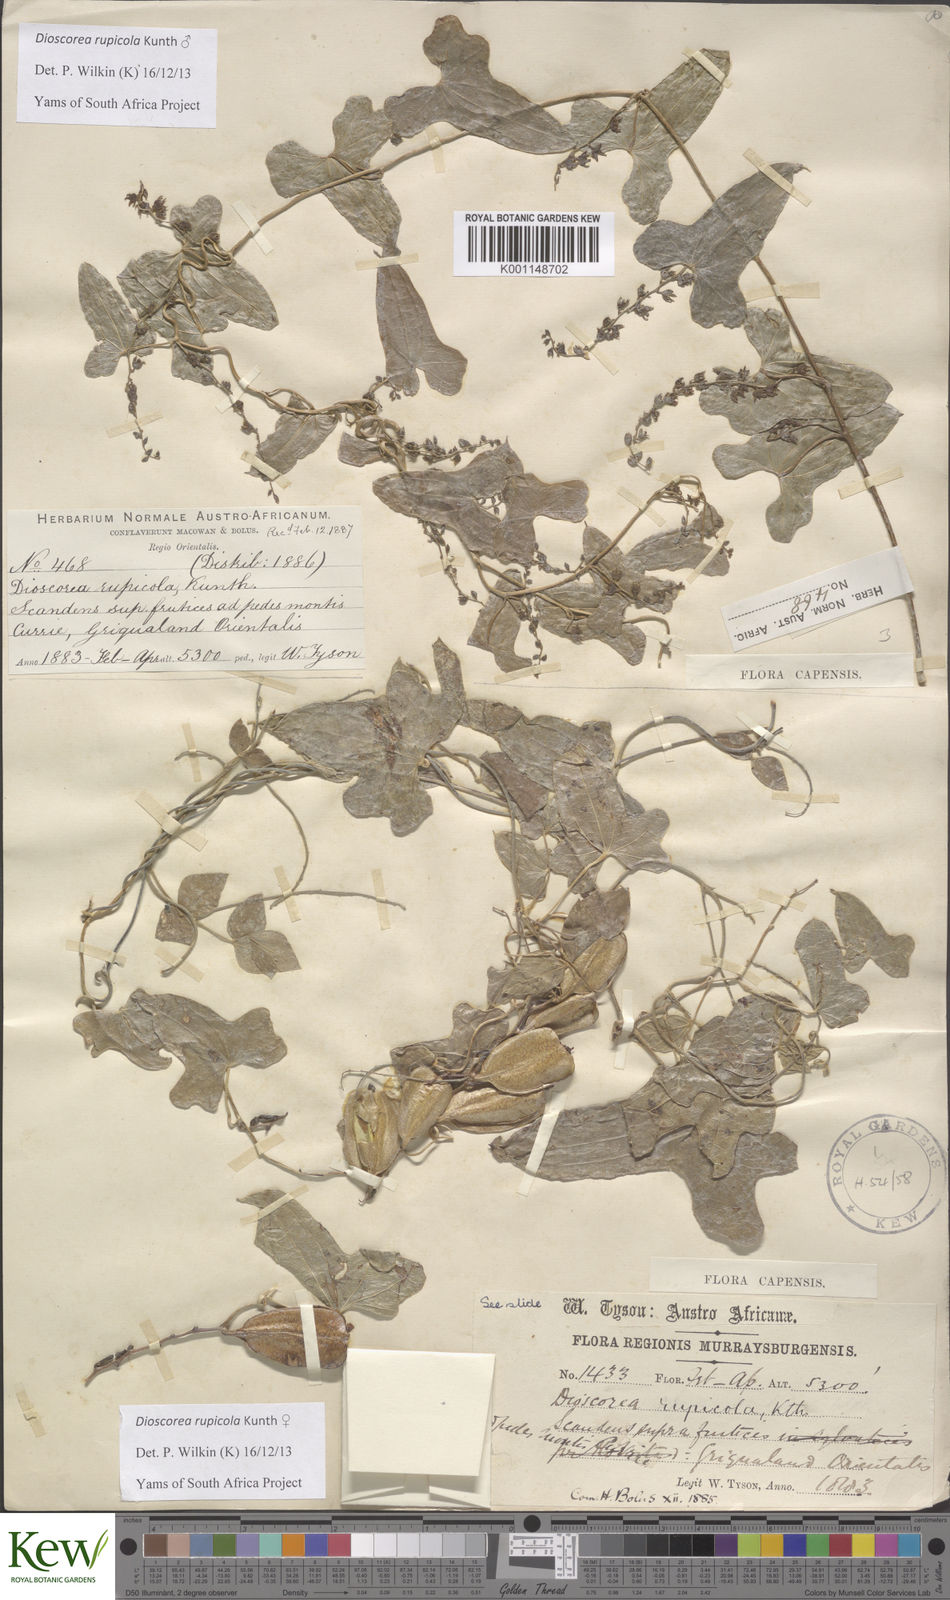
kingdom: Plantae
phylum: Tracheophyta
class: Liliopsida
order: Dioscoreales
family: Dioscoreaceae
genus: Dioscorea
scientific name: Dioscorea rupicola
